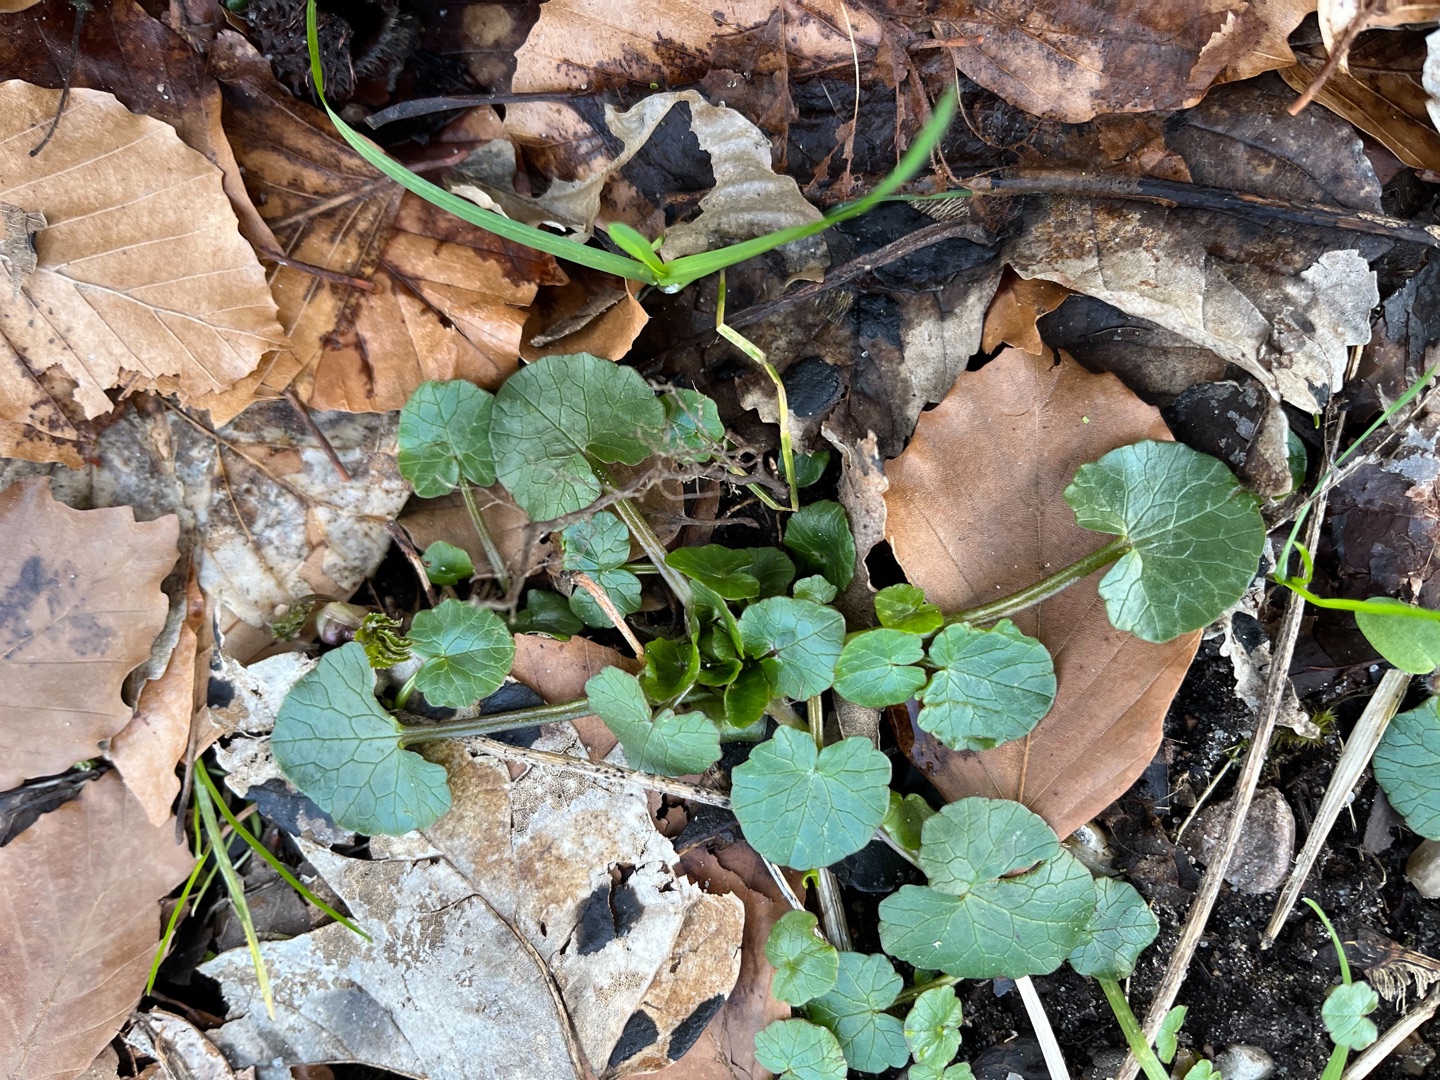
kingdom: Plantae
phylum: Tracheophyta
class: Magnoliopsida
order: Ranunculales
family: Ranunculaceae
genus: Ficaria
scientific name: Ficaria verna
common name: Vorterod
